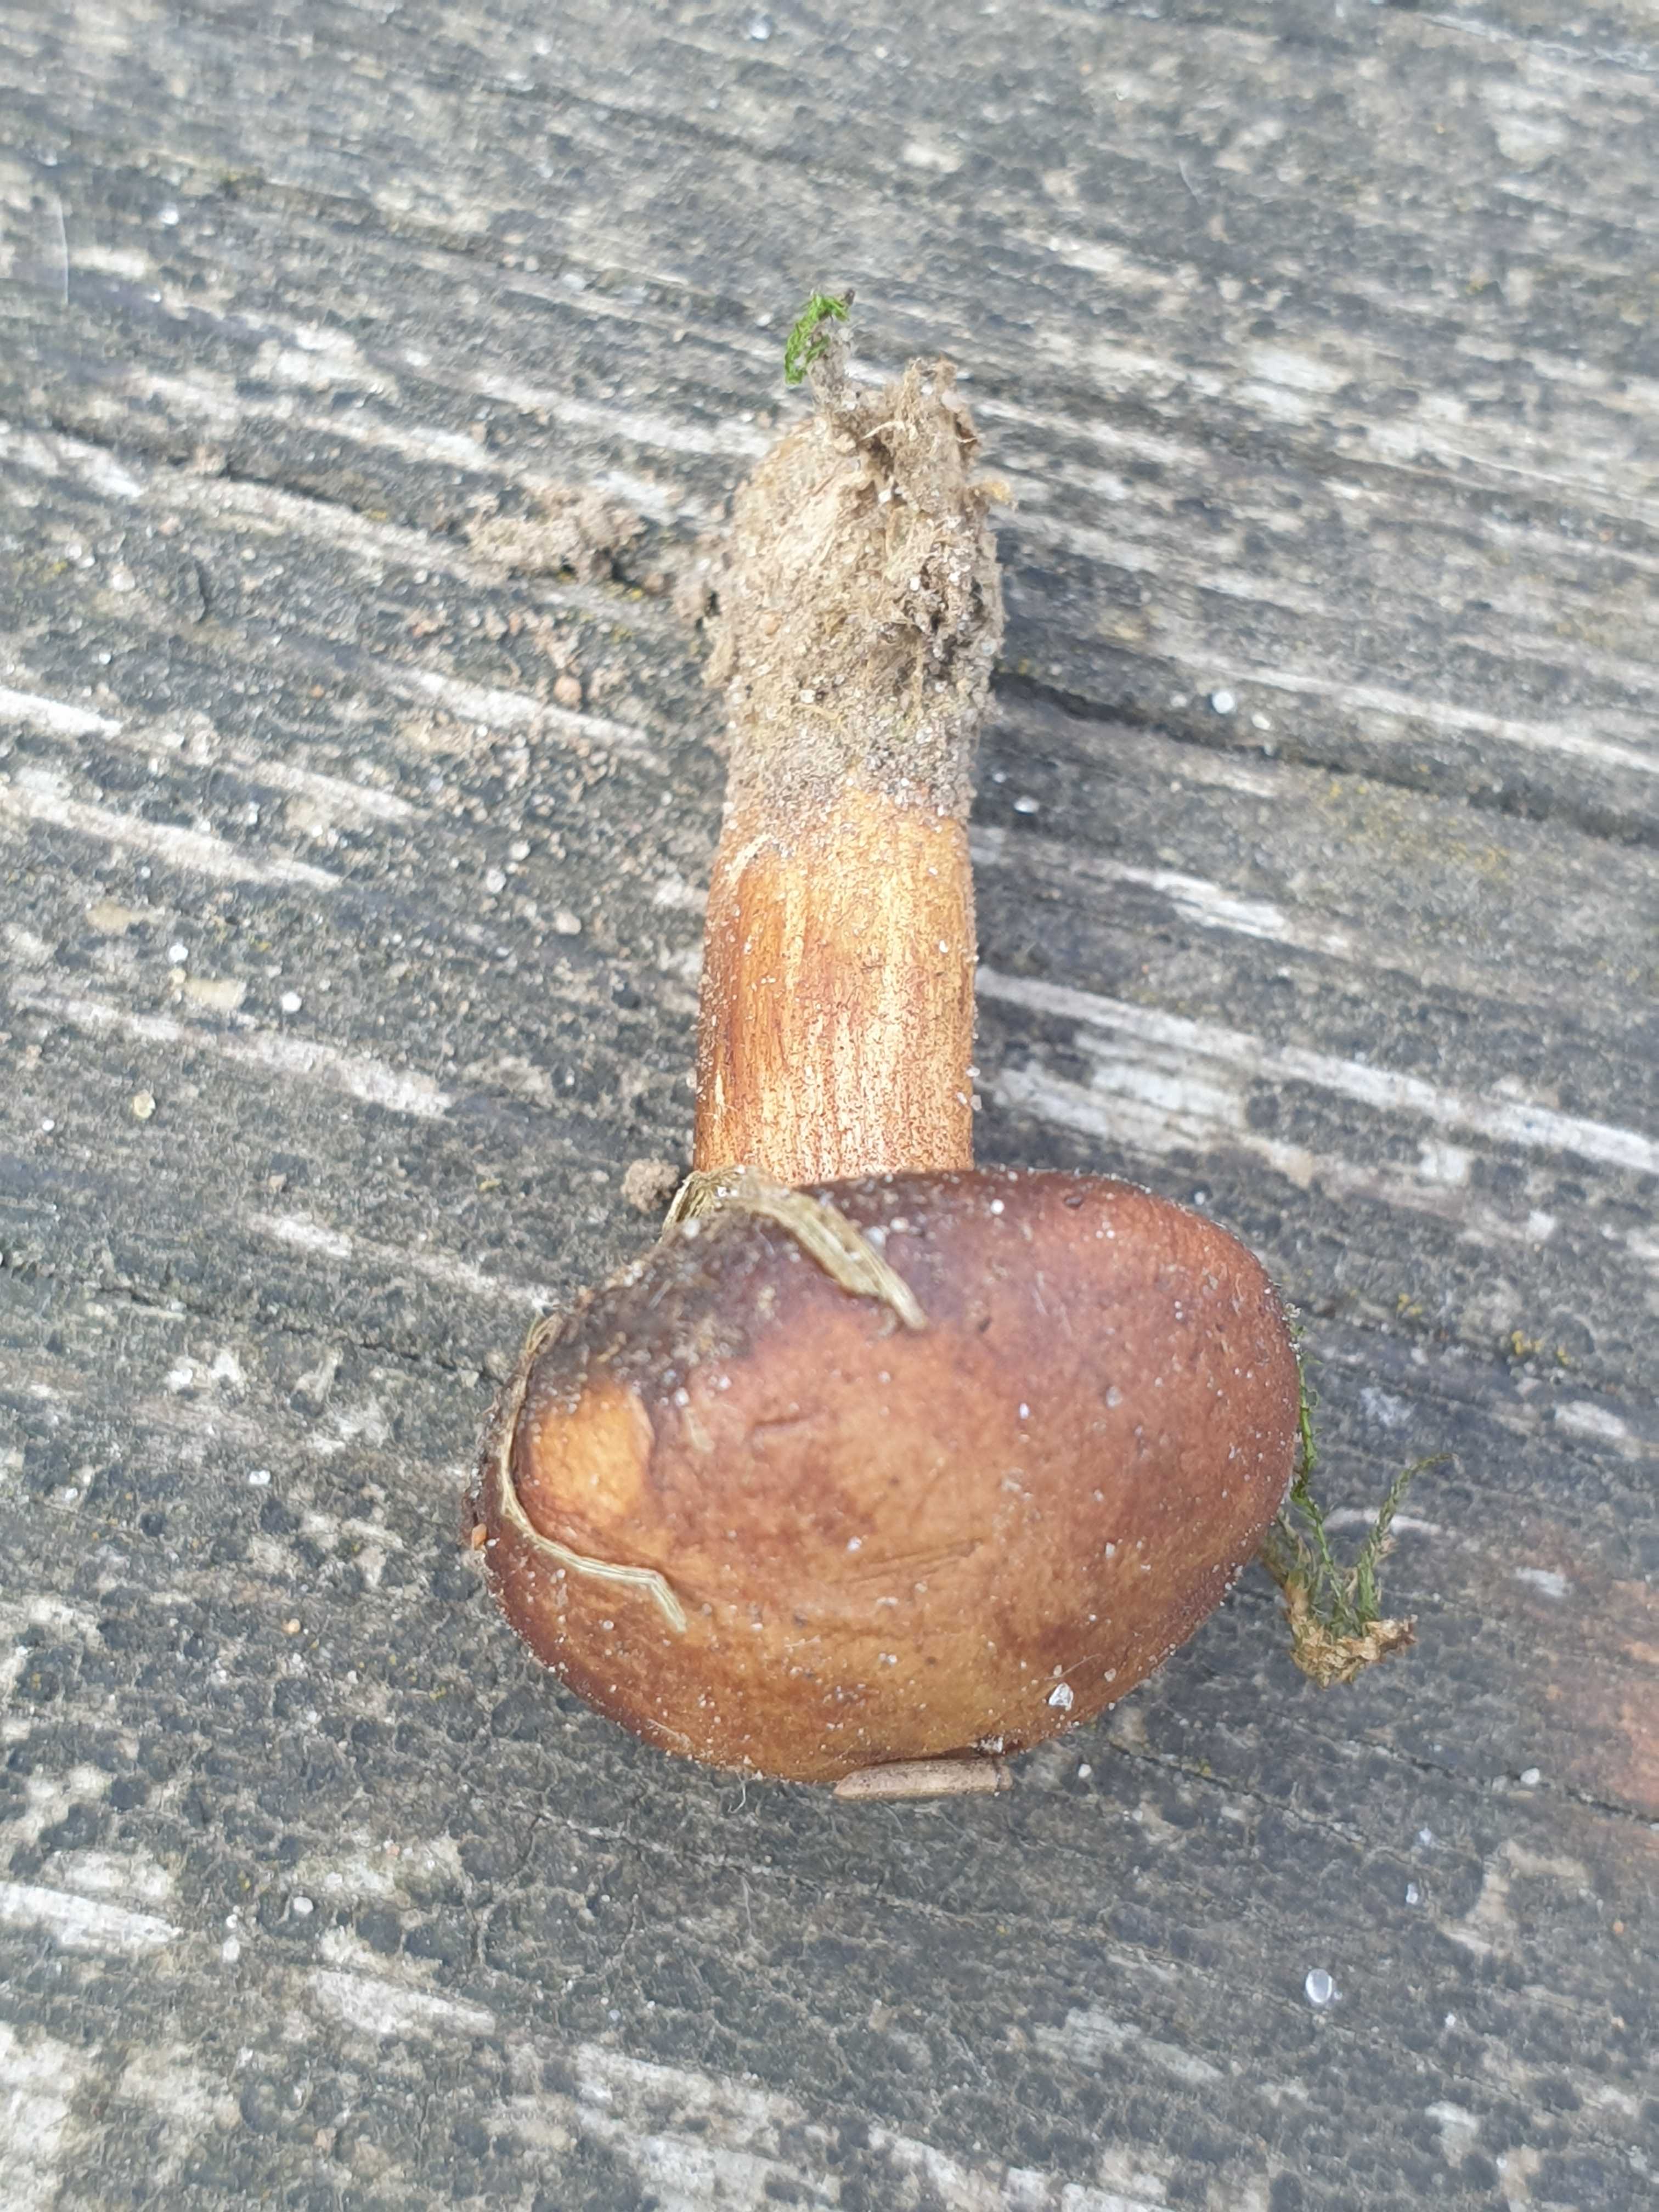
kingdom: Fungi
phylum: Basidiomycota
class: Agaricomycetes
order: Boletales
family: Boletaceae
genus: Chalciporus
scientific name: Chalciporus piperatus
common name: peberrørhat
